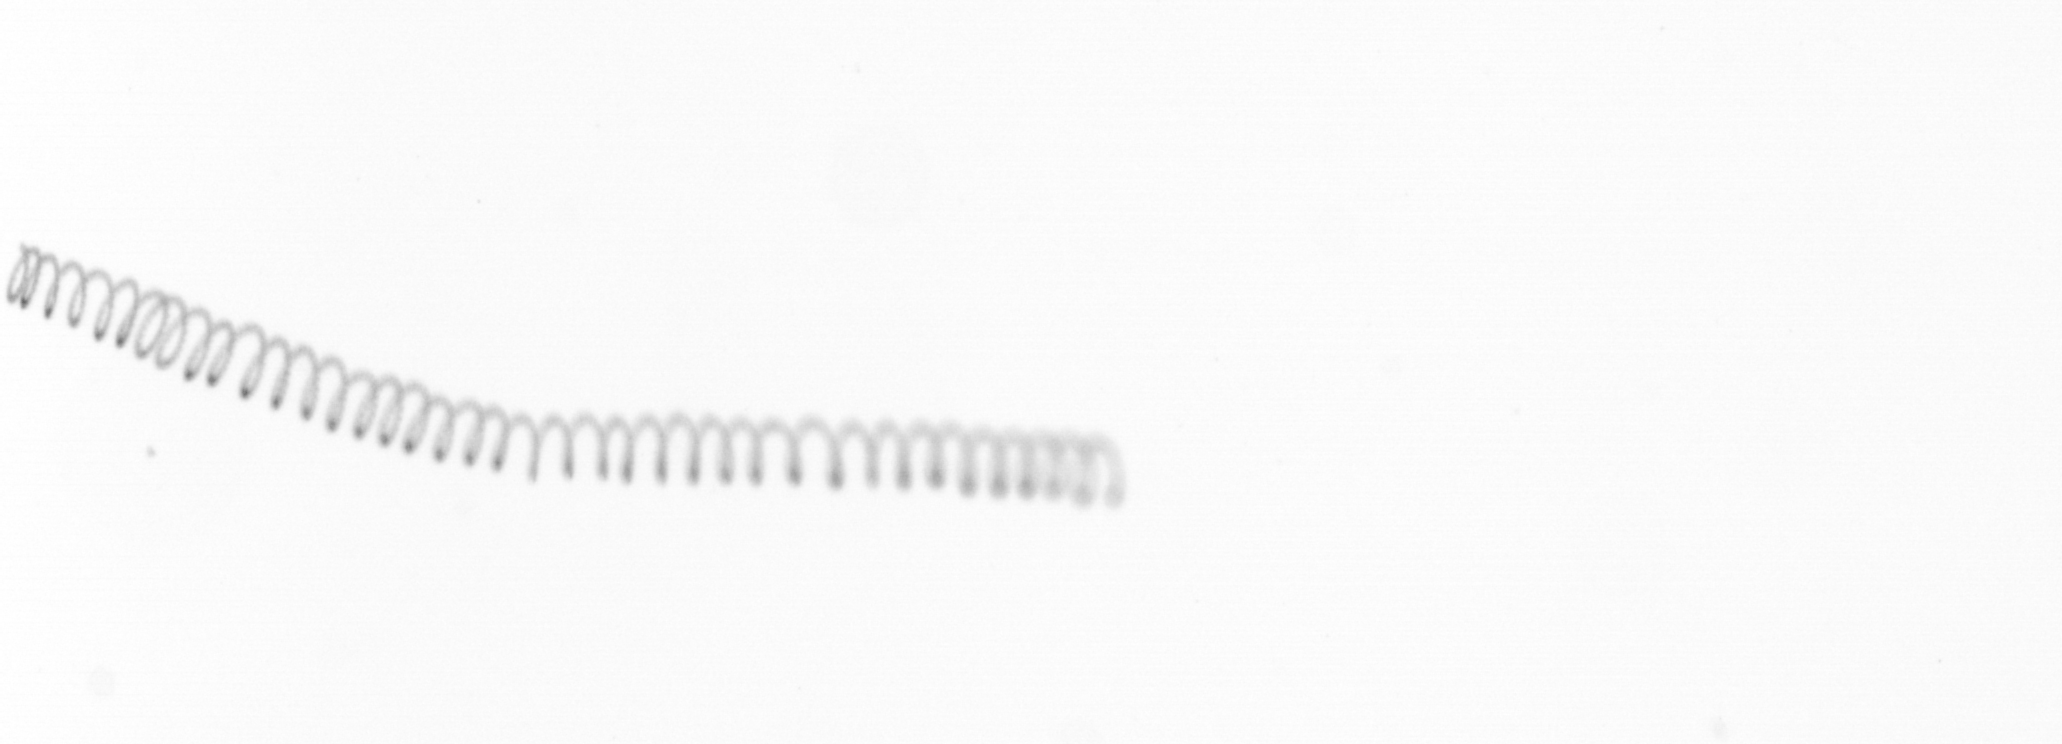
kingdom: Chromista
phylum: Ochrophyta
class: Bacillariophyceae
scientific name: Bacillariophyceae
